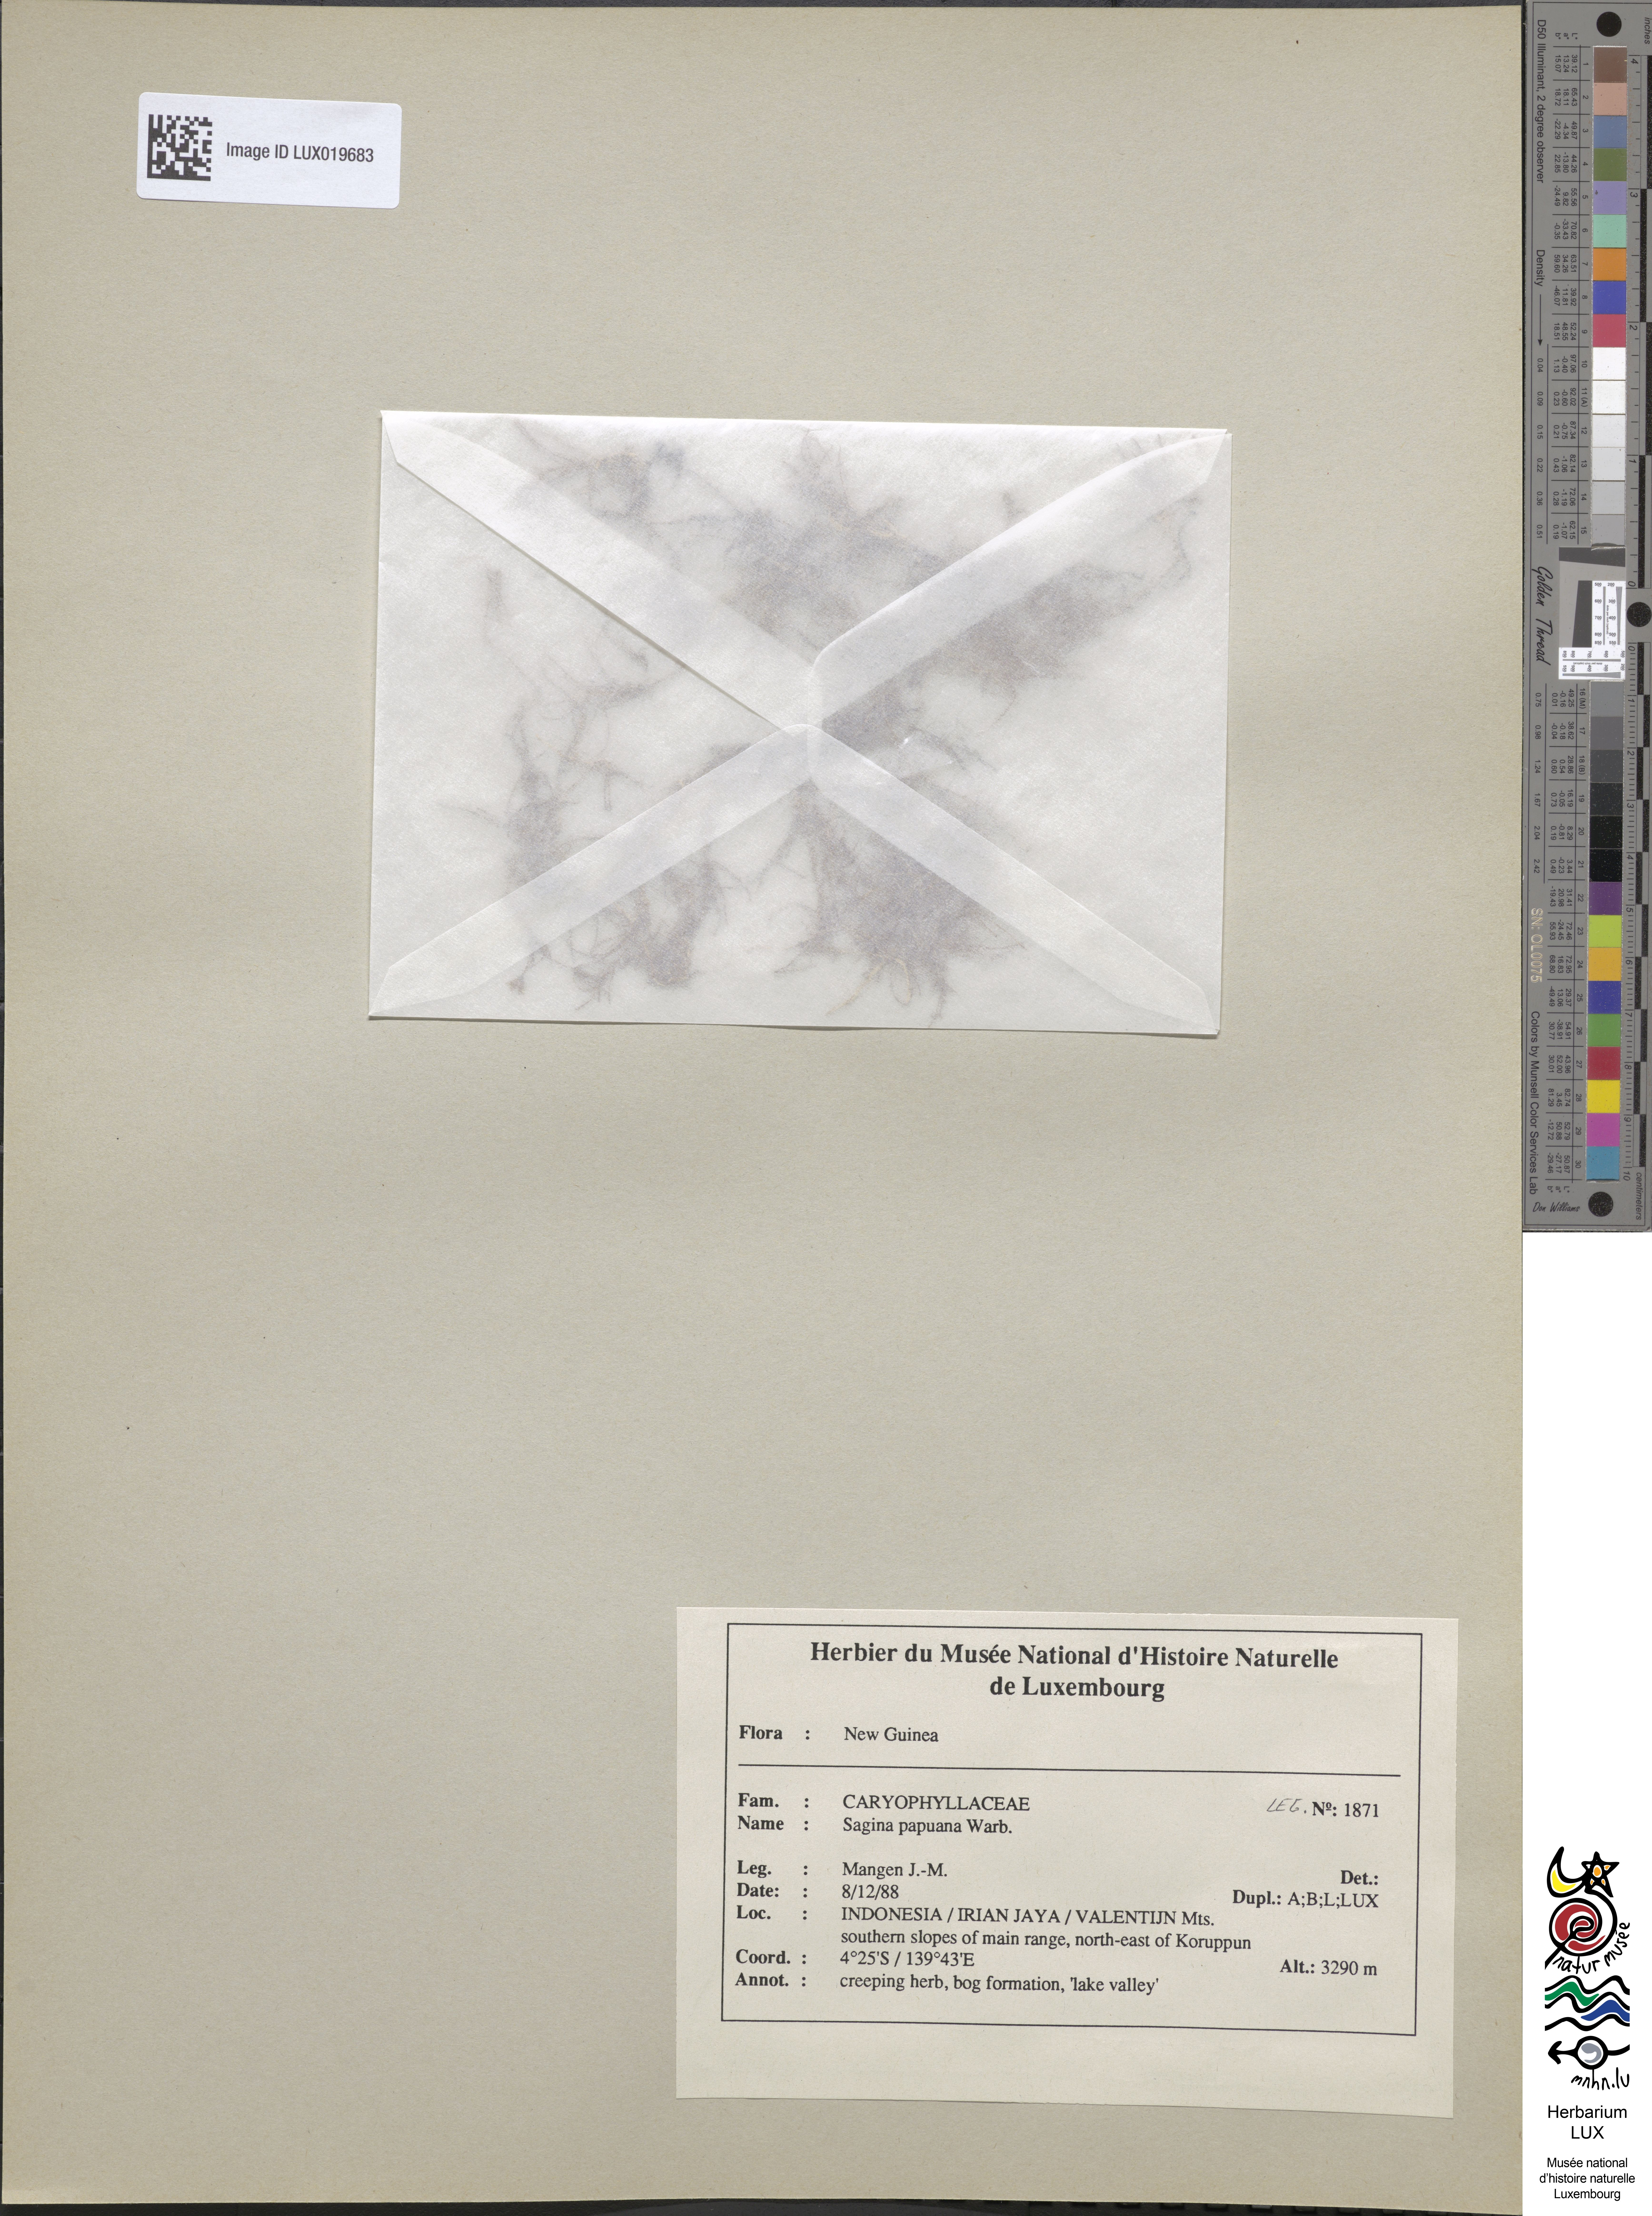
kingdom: Plantae
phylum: Tracheophyta
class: Magnoliopsida
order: Caryophyllales
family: Caryophyllaceae
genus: Sagina
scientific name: Sagina papuana
